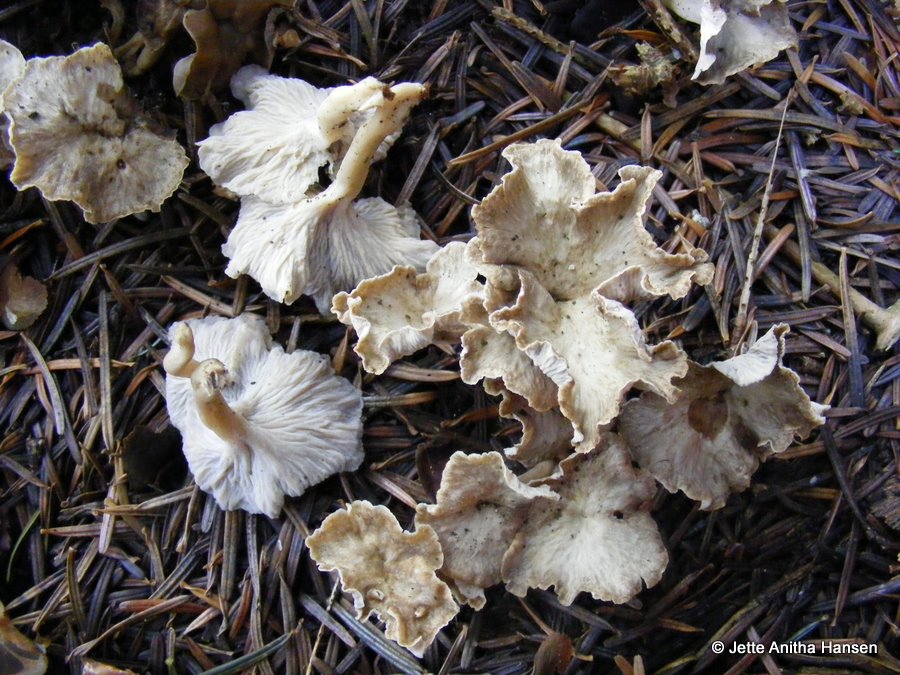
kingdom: Fungi
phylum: Basidiomycota
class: Agaricomycetes
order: Cantharellales
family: Hydnaceae
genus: Craterellus
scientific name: Craterellus undulatus
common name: liden kantarel
